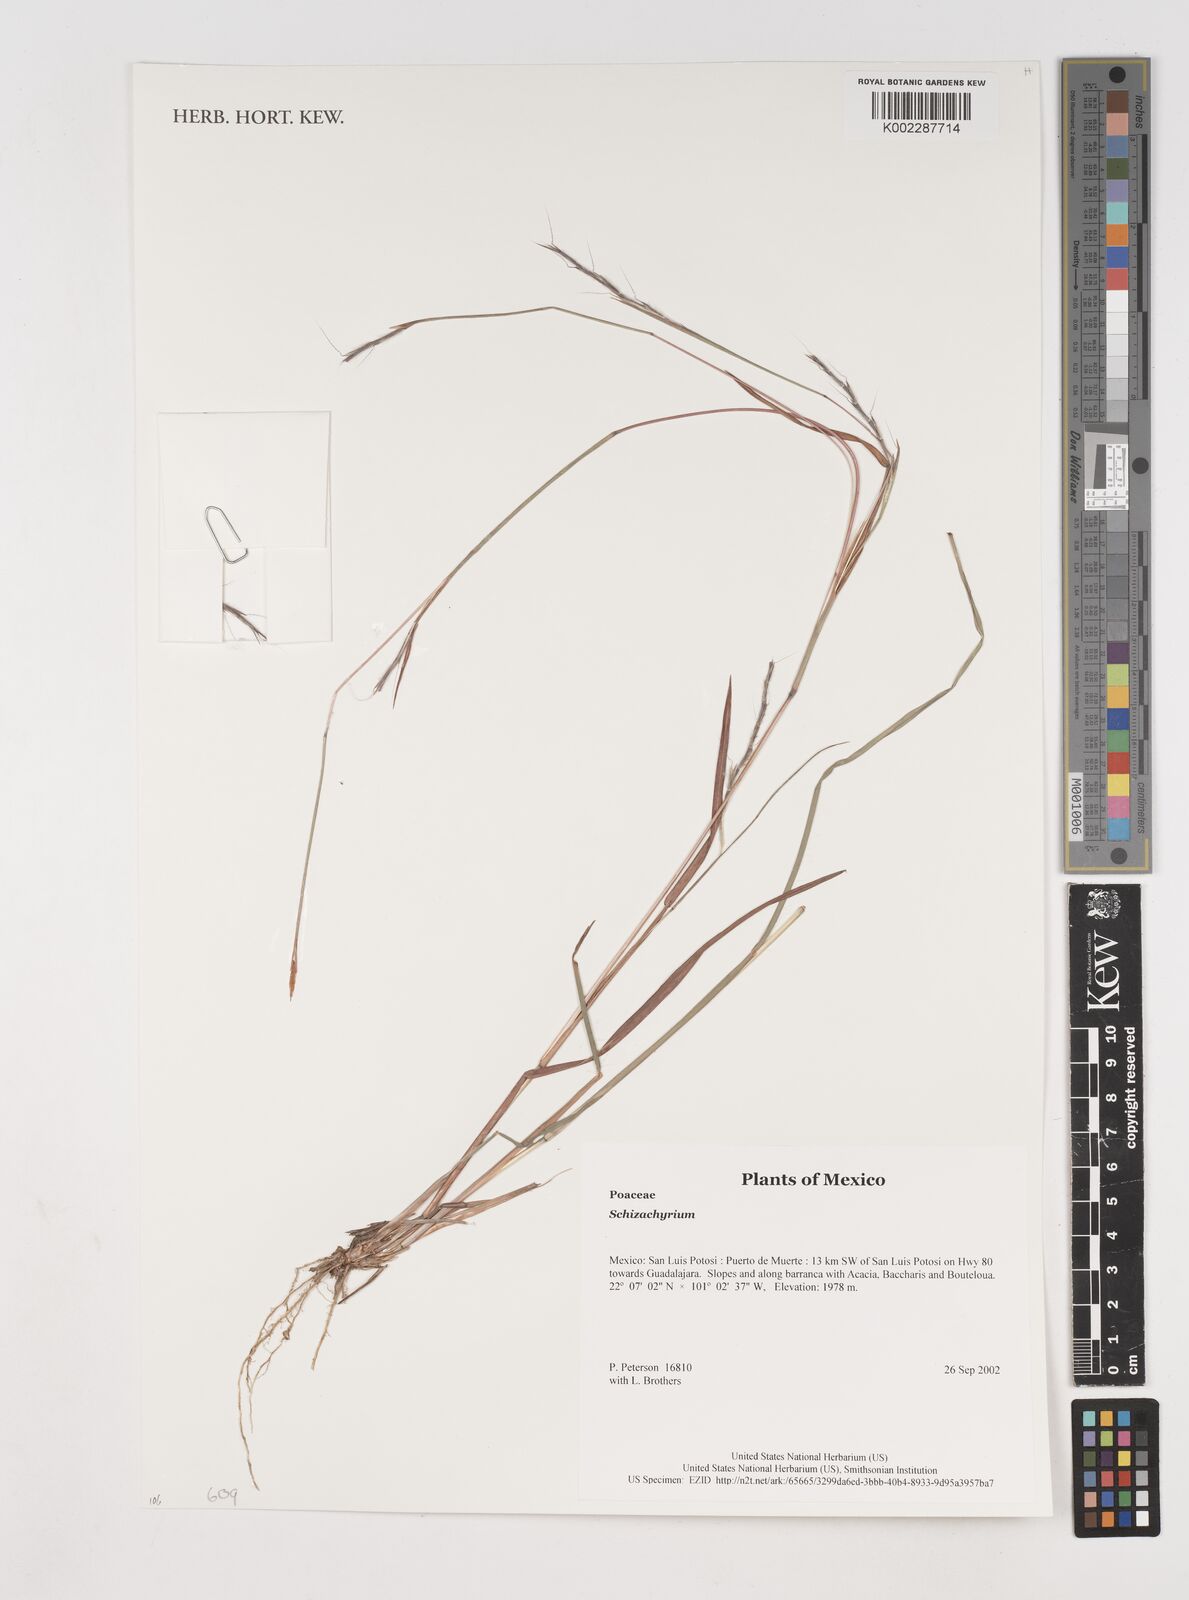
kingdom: Plantae
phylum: Tracheophyta
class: Liliopsida
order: Poales
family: Poaceae
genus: Schizachyrium
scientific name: Schizachyrium
